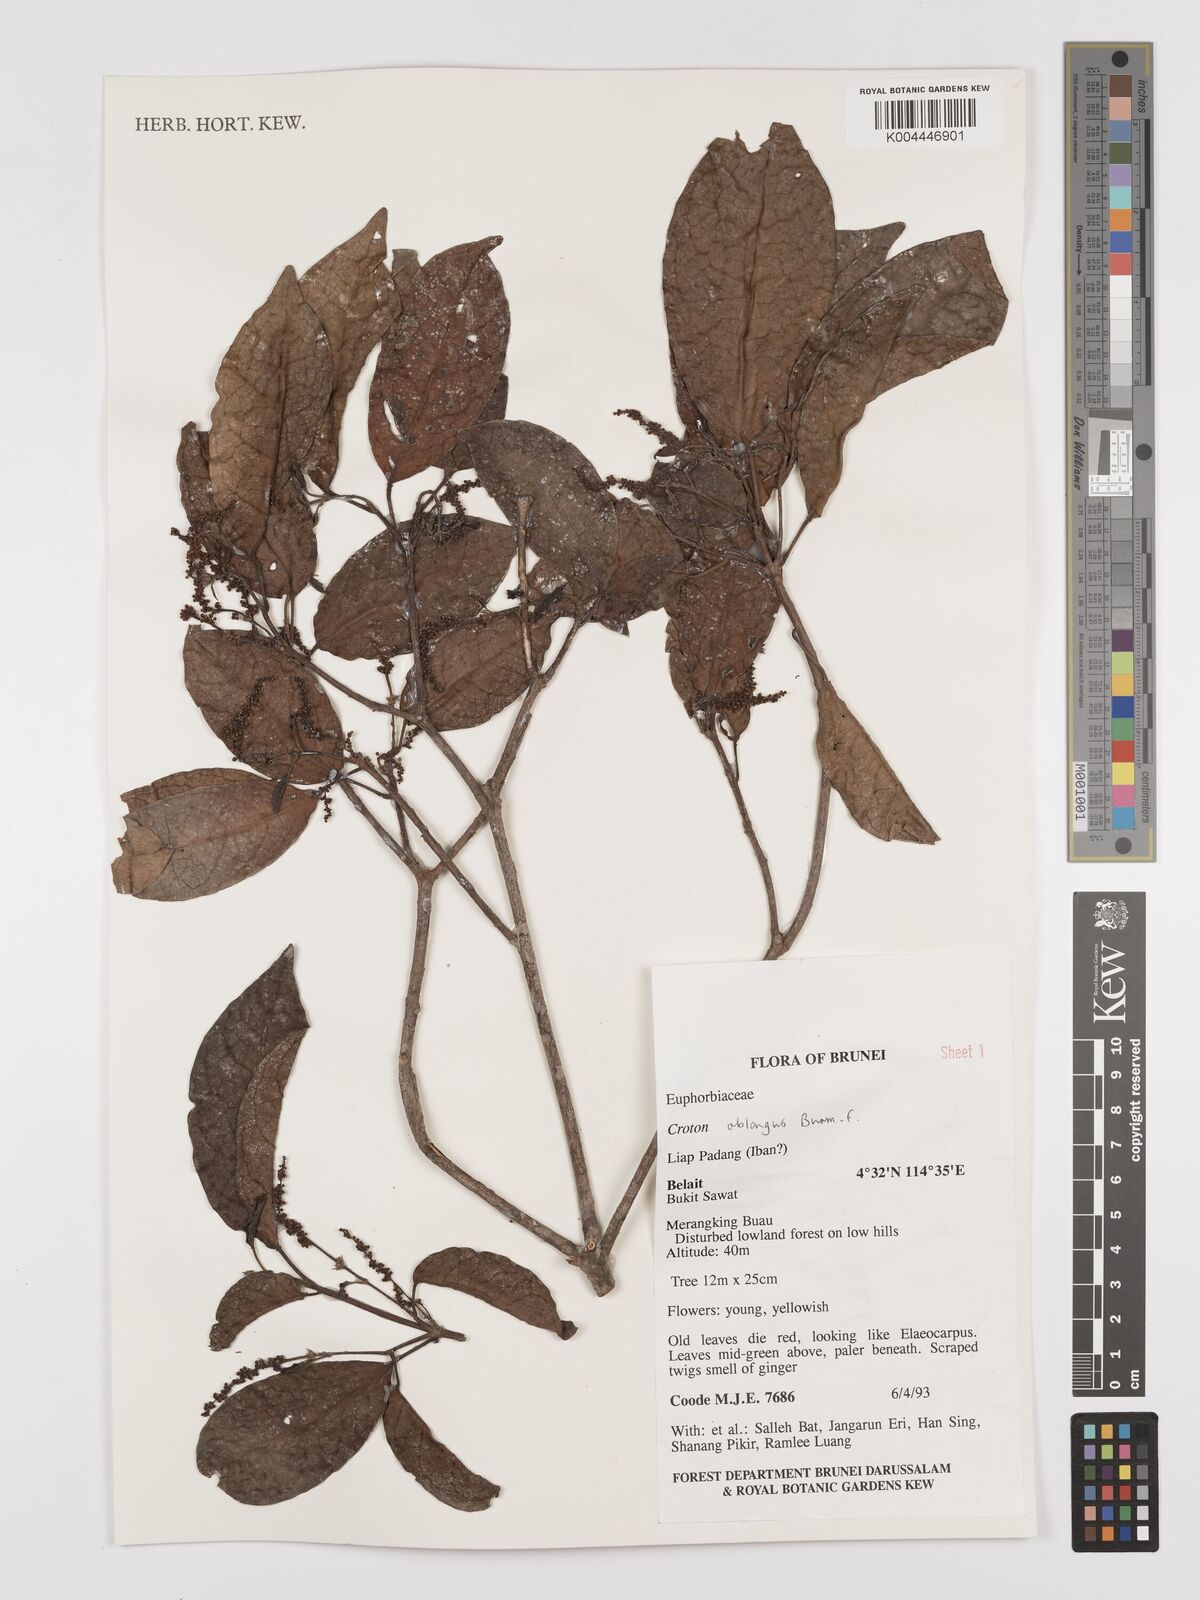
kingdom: Plantae
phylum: Tracheophyta
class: Magnoliopsida
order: Malpighiales
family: Euphorbiaceae
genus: Croton
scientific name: Croton oblongus
